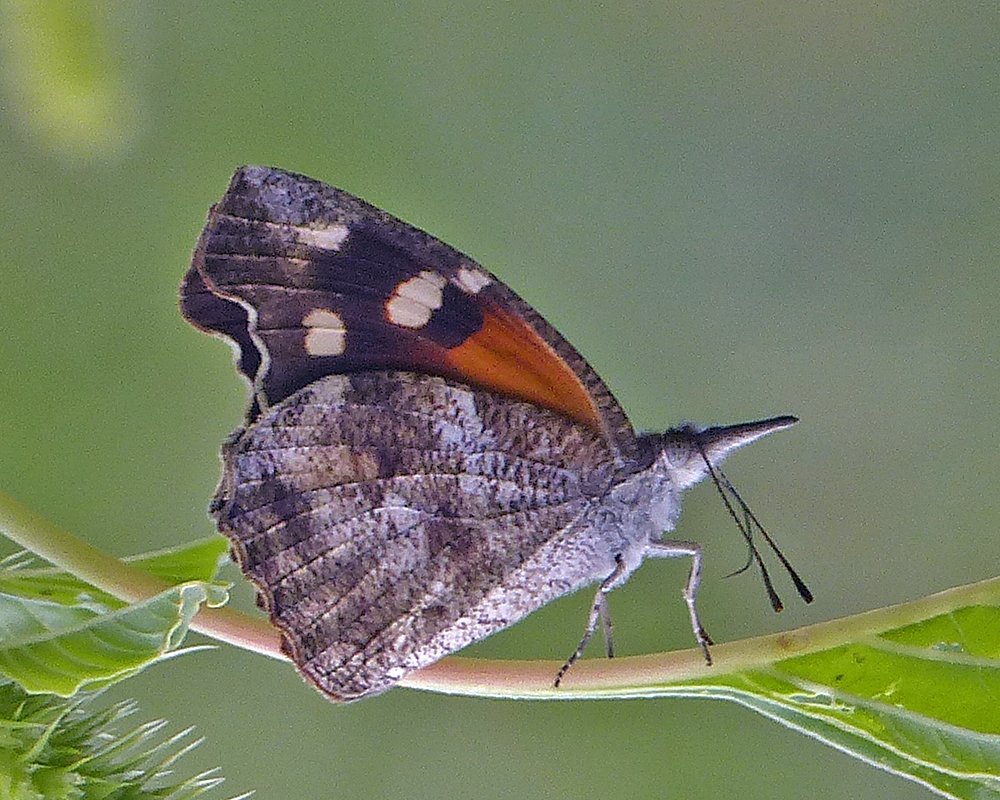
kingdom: Animalia
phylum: Arthropoda
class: Insecta
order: Lepidoptera
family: Nymphalidae
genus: Libytheana
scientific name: Libytheana carinenta
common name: American Snout
